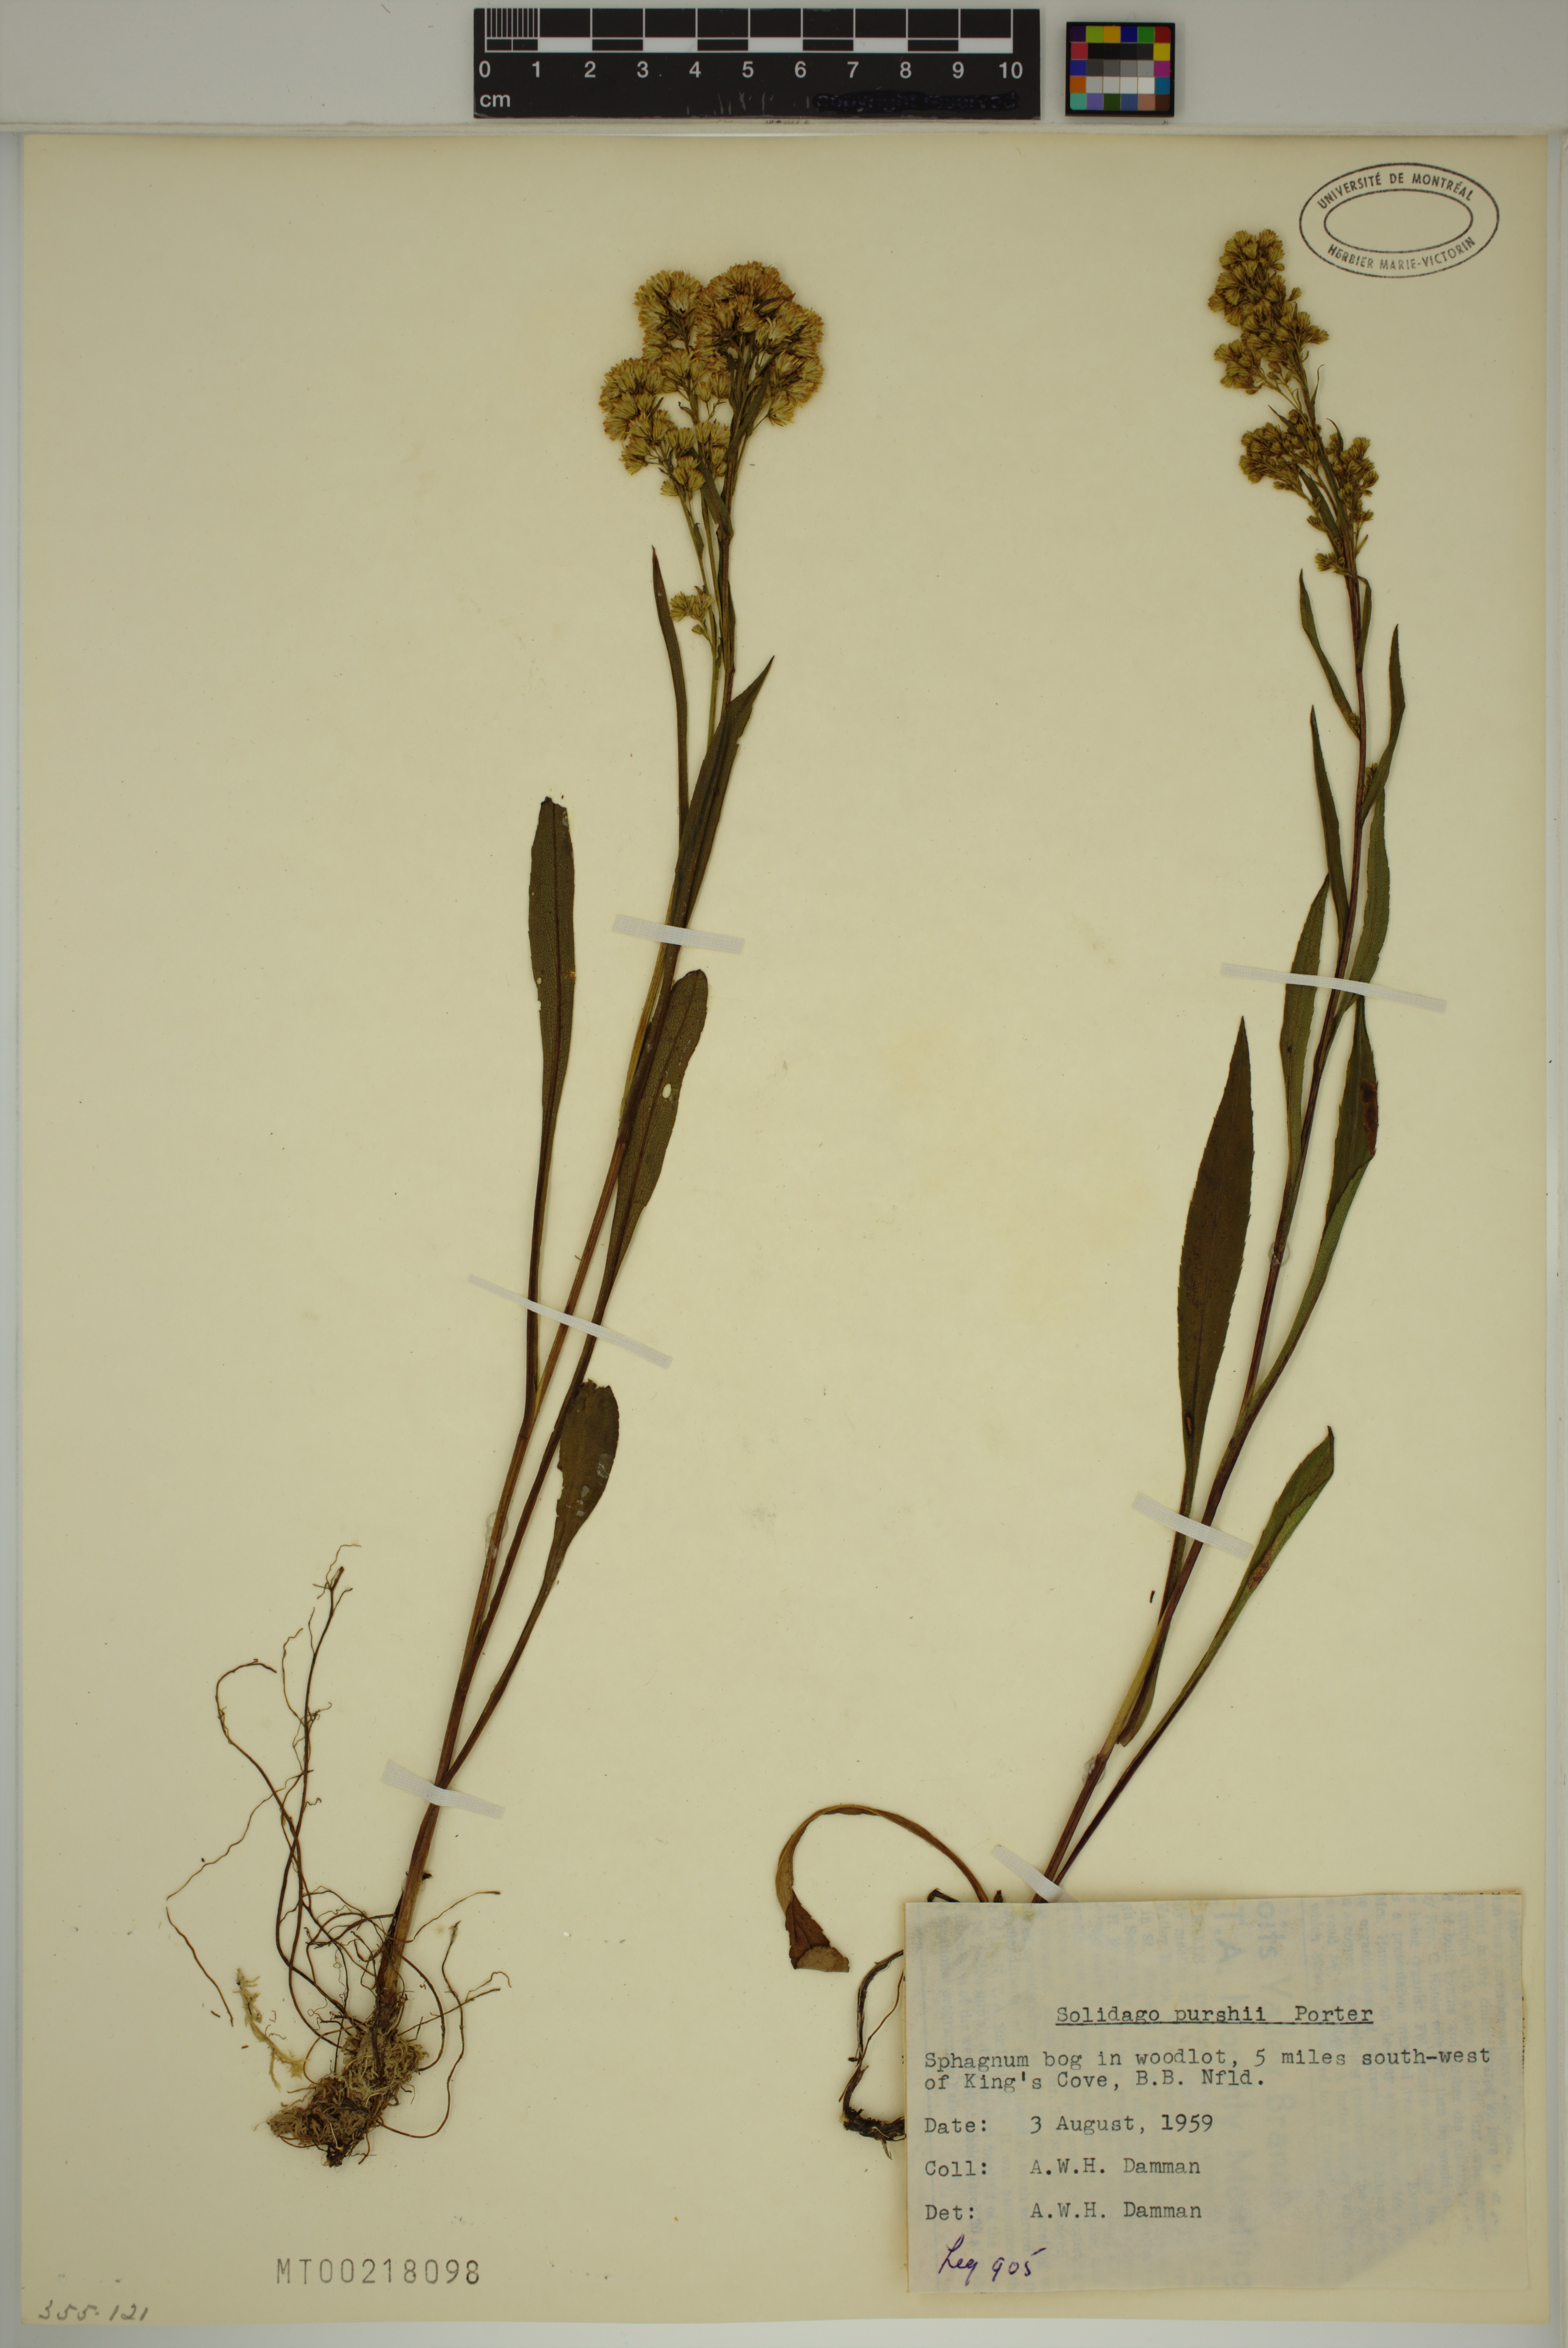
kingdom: Plantae
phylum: Tracheophyta
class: Magnoliopsida
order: Asterales
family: Asteraceae
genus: Solidago
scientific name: Solidago uliginosa
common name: Bog goldenrod
